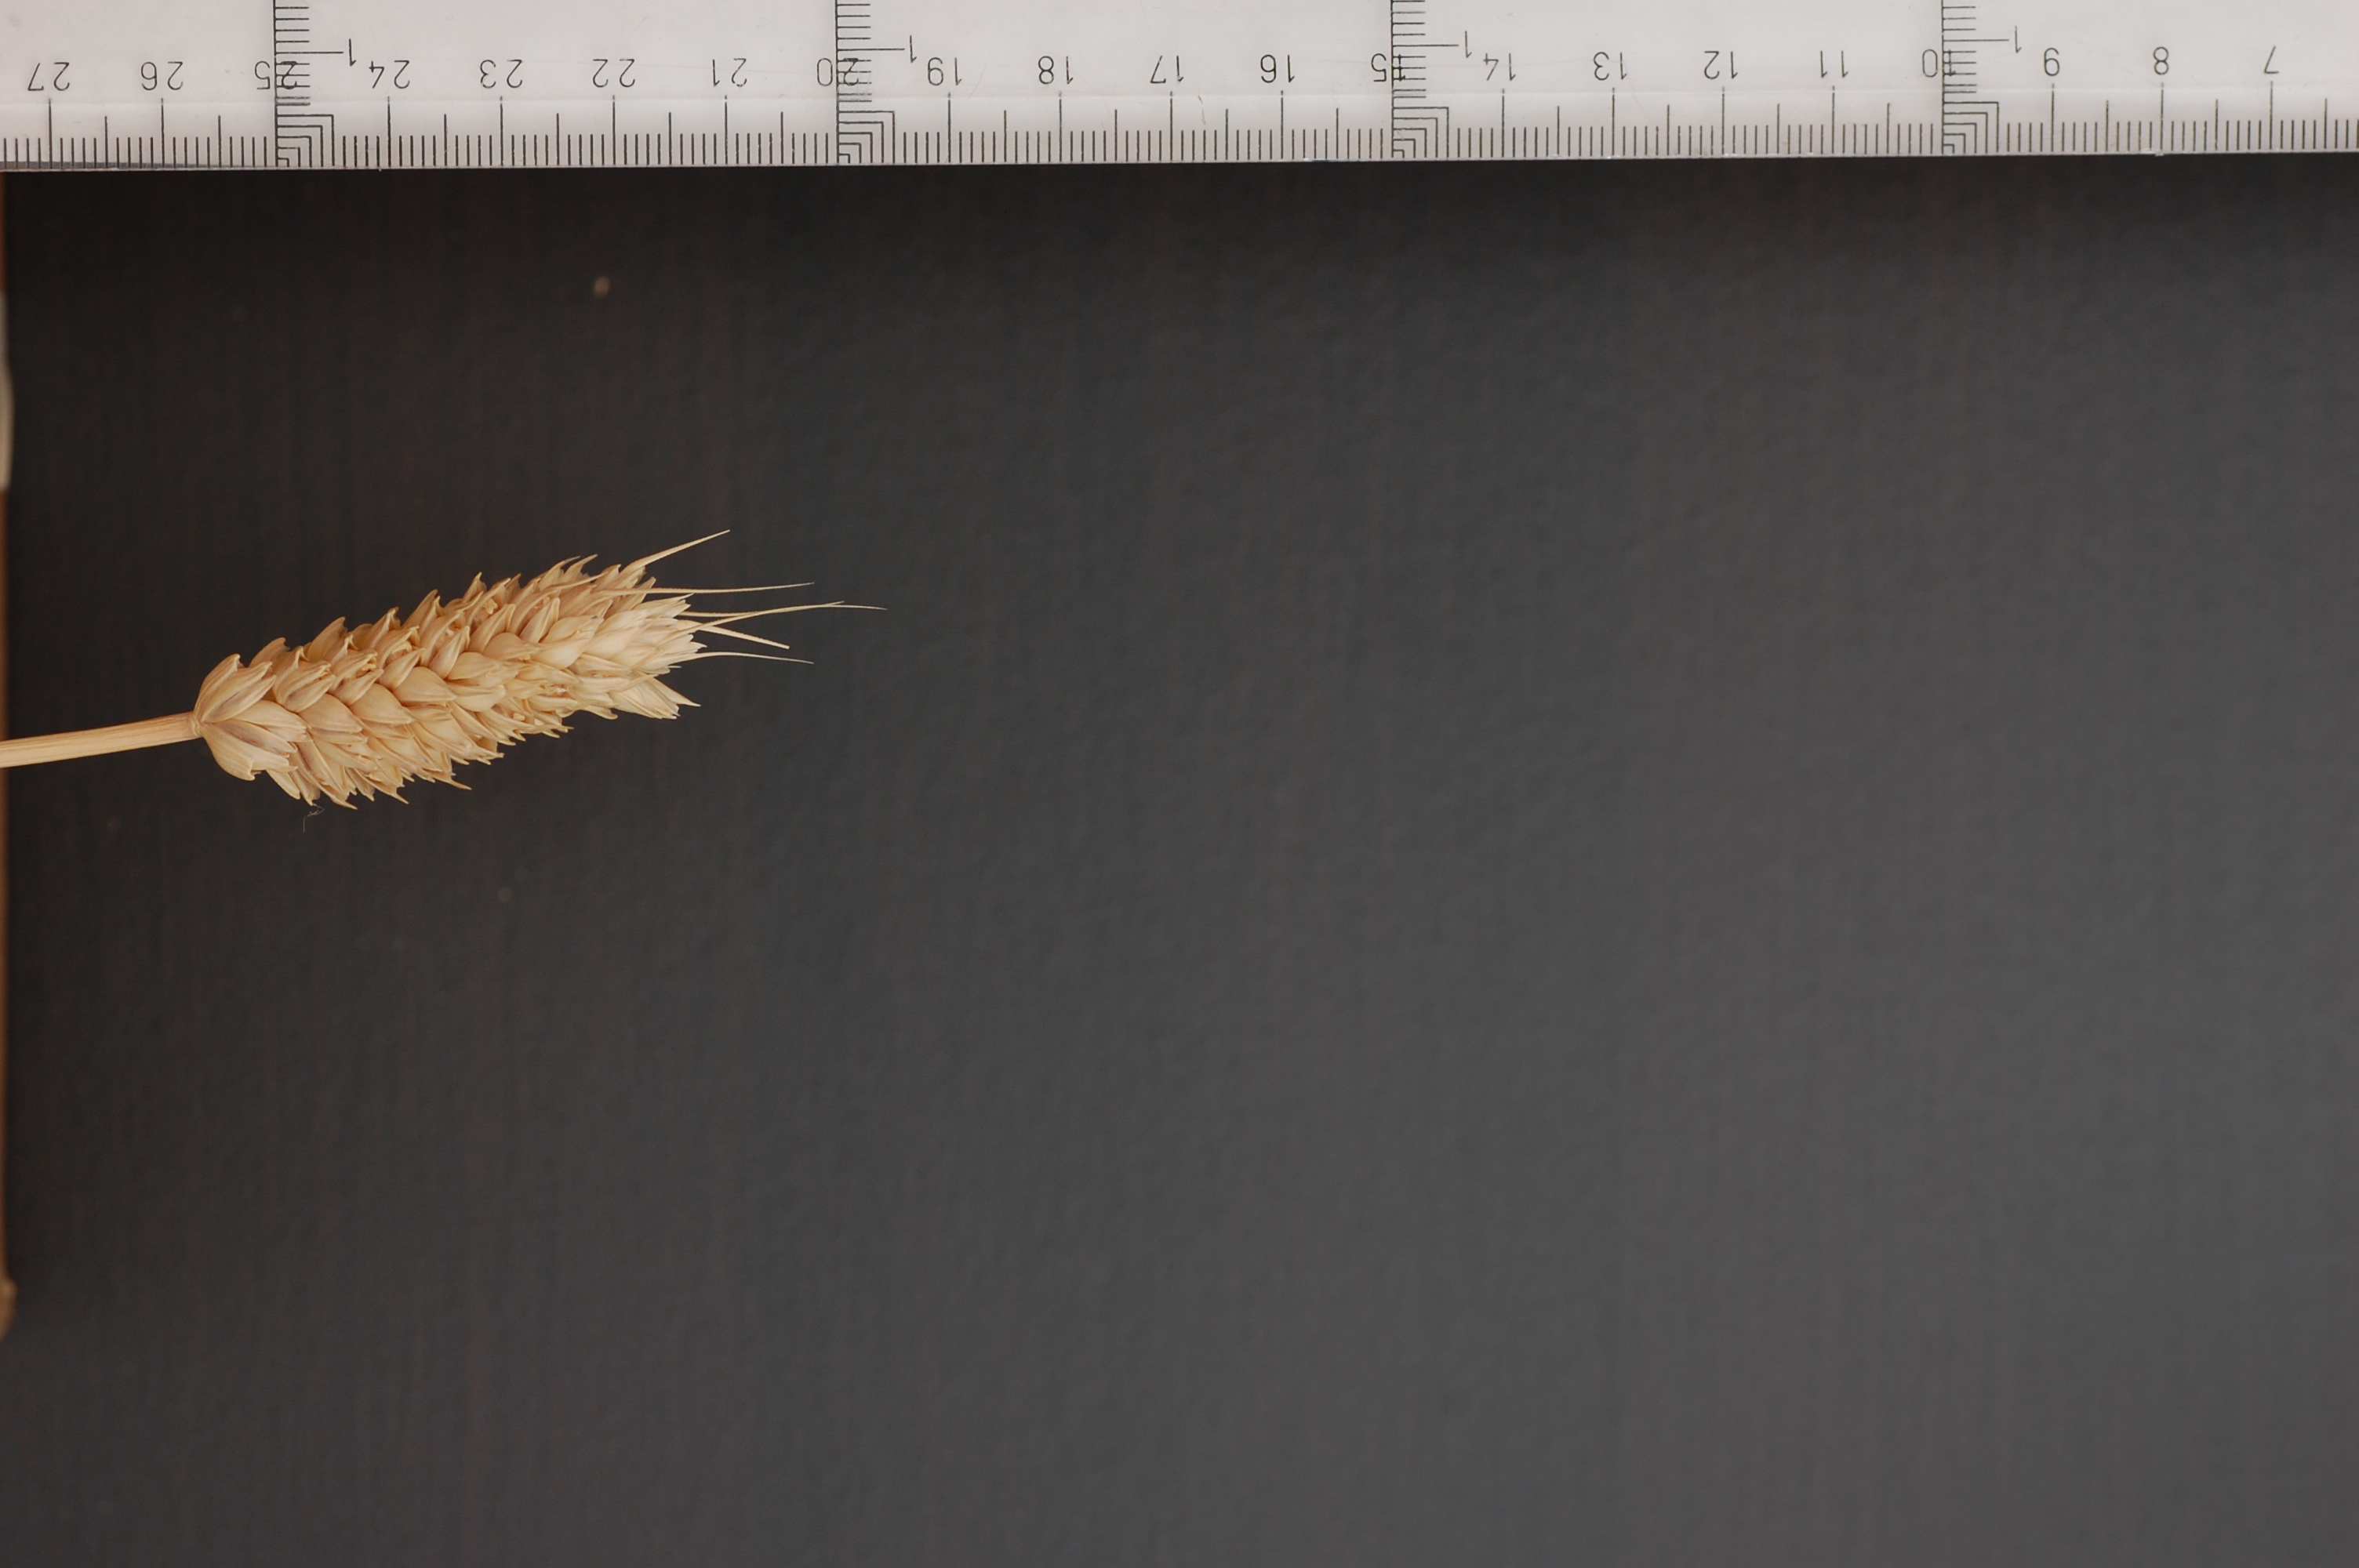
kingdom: Plantae
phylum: Tracheophyta
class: Liliopsida
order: Poales
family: Poaceae
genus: Triticum
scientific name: Triticum aestivum
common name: Common wheat
